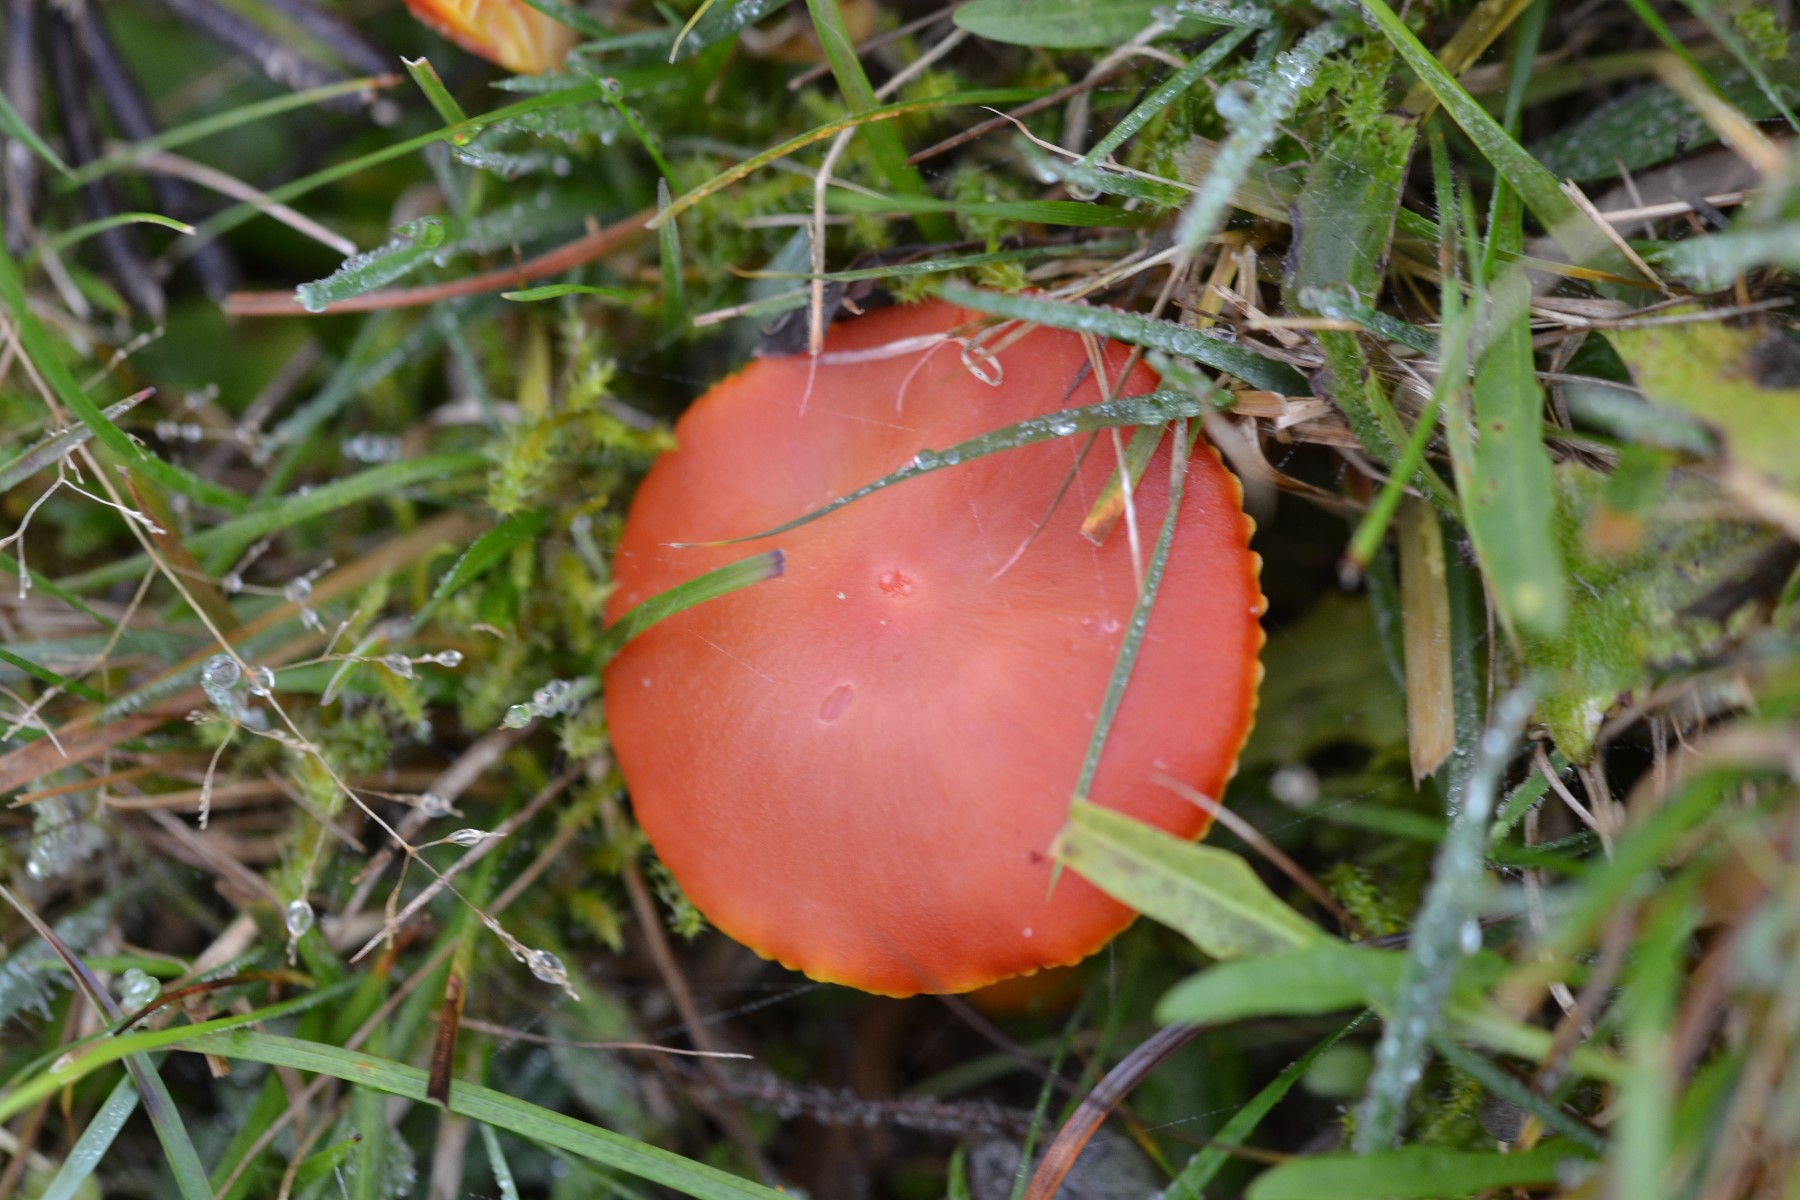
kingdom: Fungi
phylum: Basidiomycota
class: Agaricomycetes
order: Agaricales
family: Hygrophoraceae
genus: Hygrocybe
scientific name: Hygrocybe coccinea
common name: cinnober-vokshat
